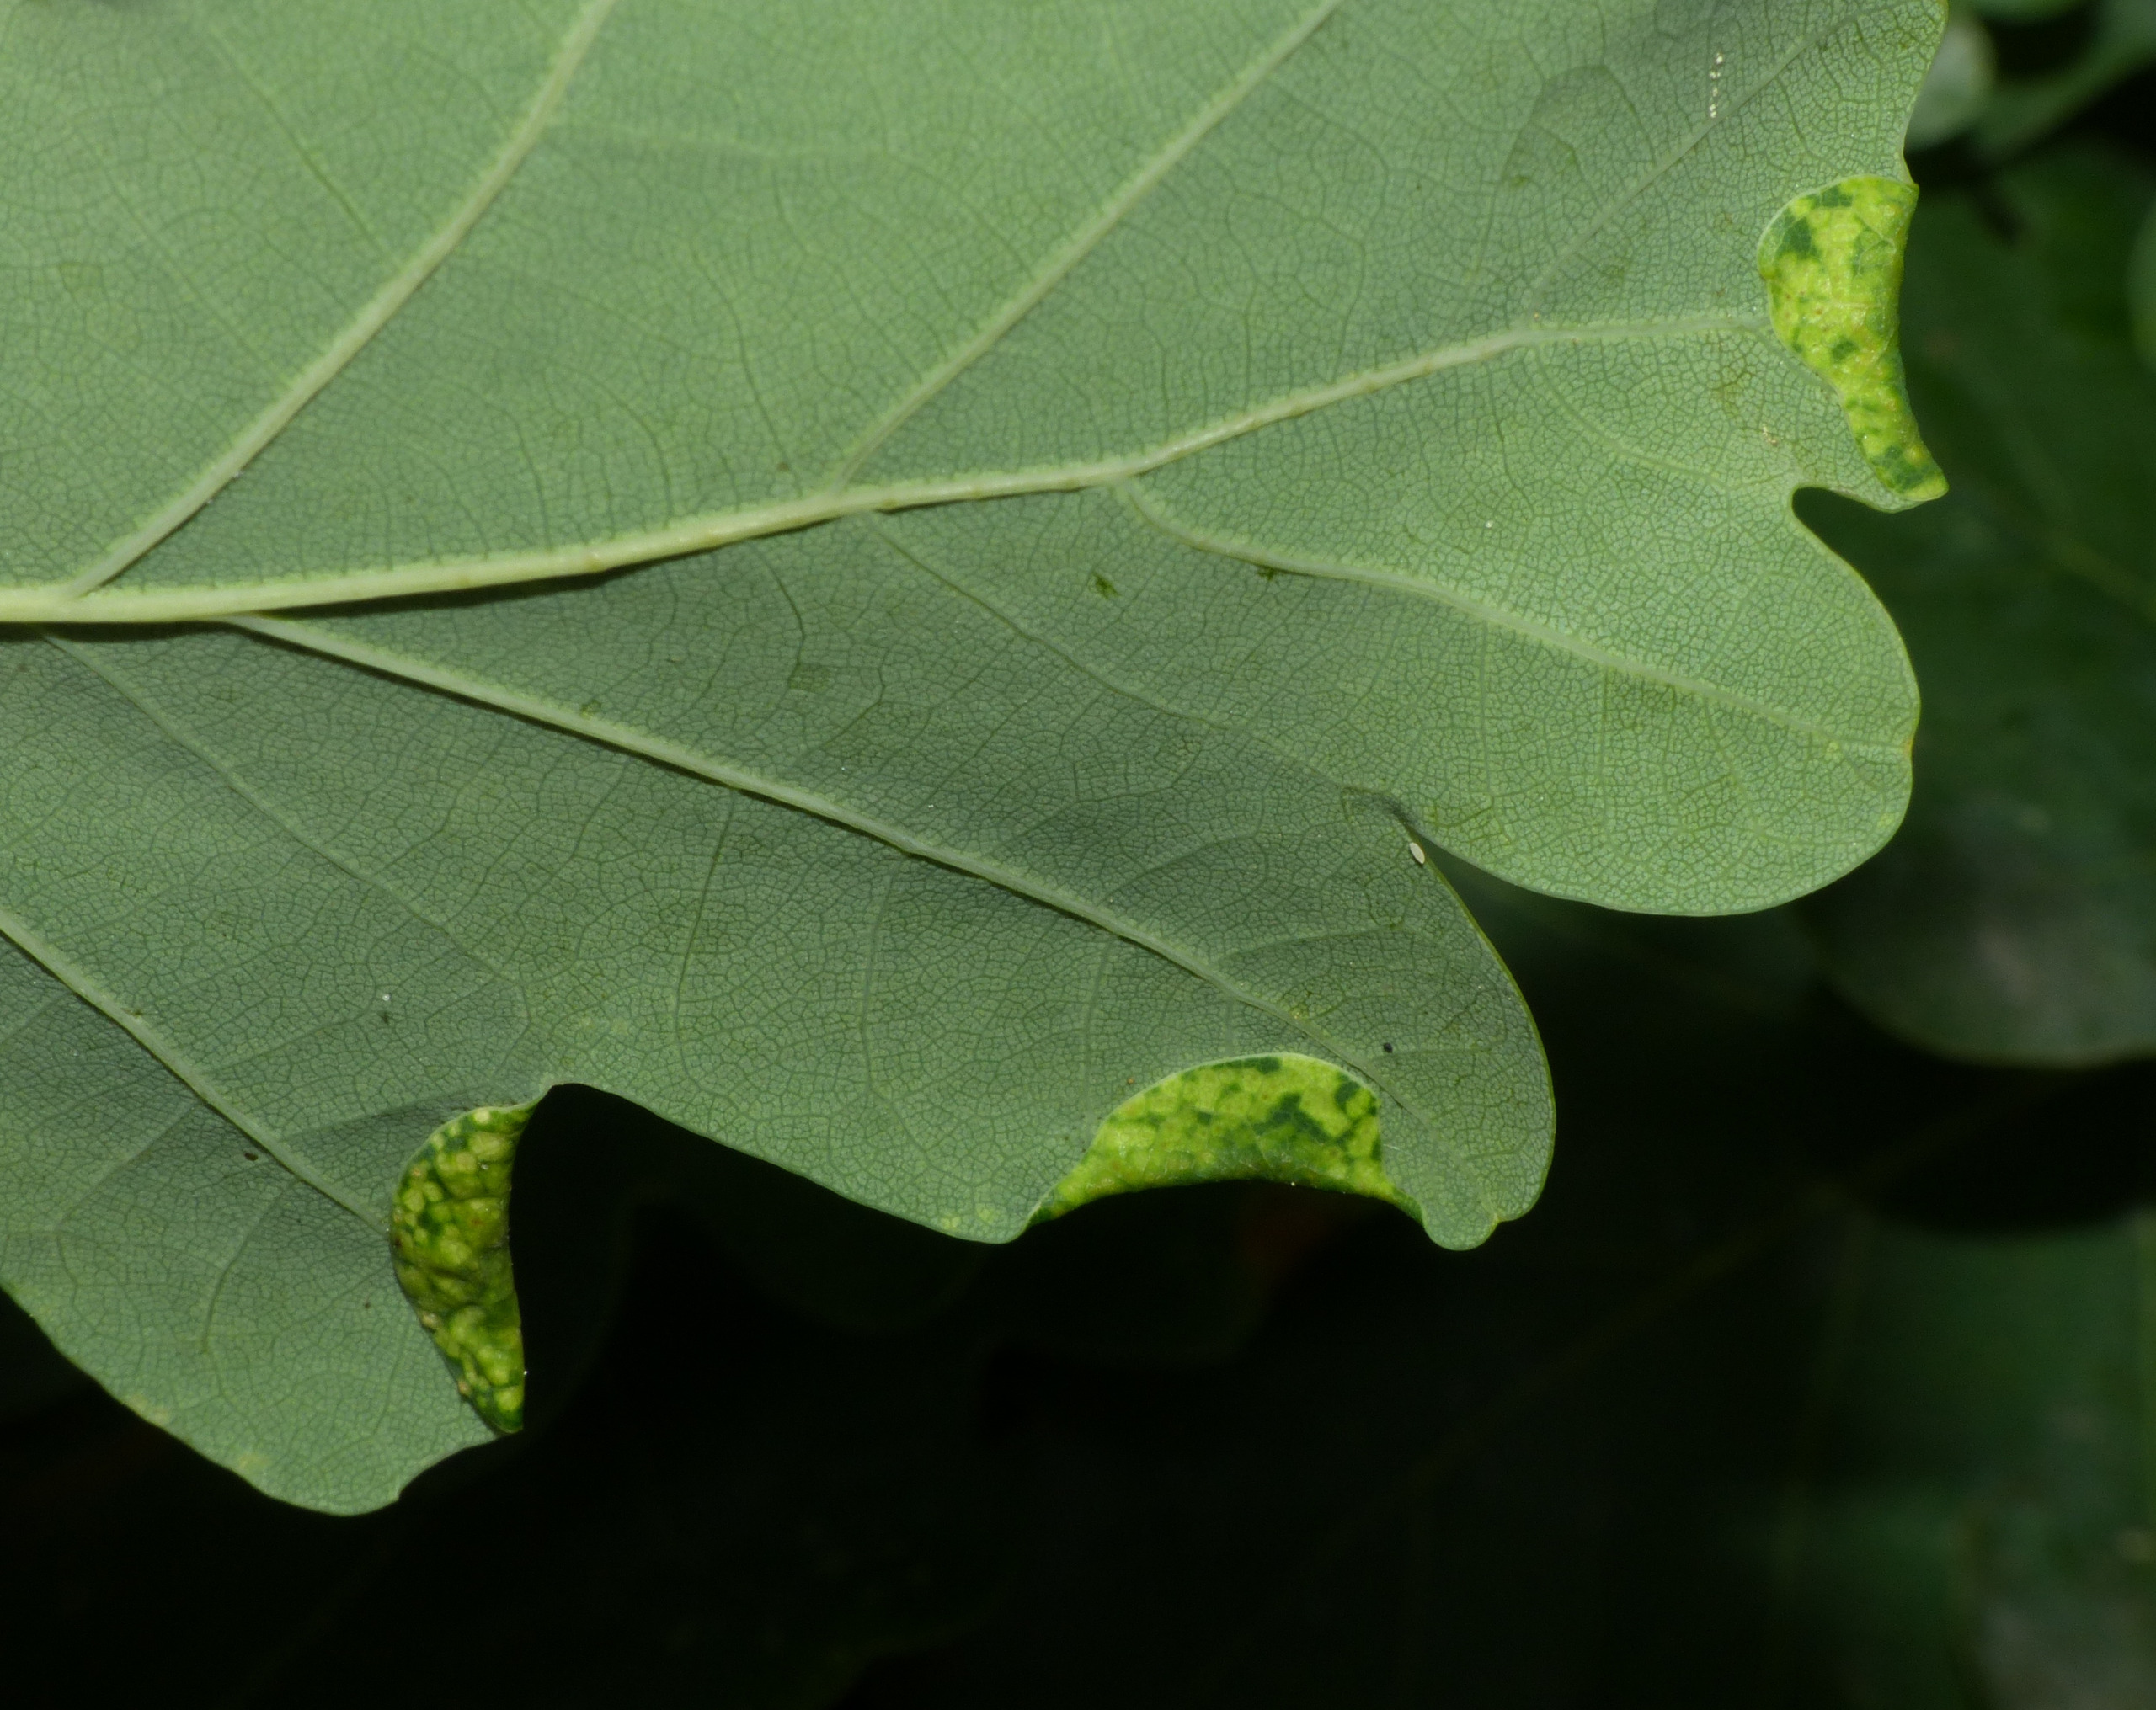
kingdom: Animalia
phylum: Arthropoda
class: Insecta
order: Diptera
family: Cecidomyiidae
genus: Macrodiplosis
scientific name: Macrodiplosis pustularis
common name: Marmorgalmyg
